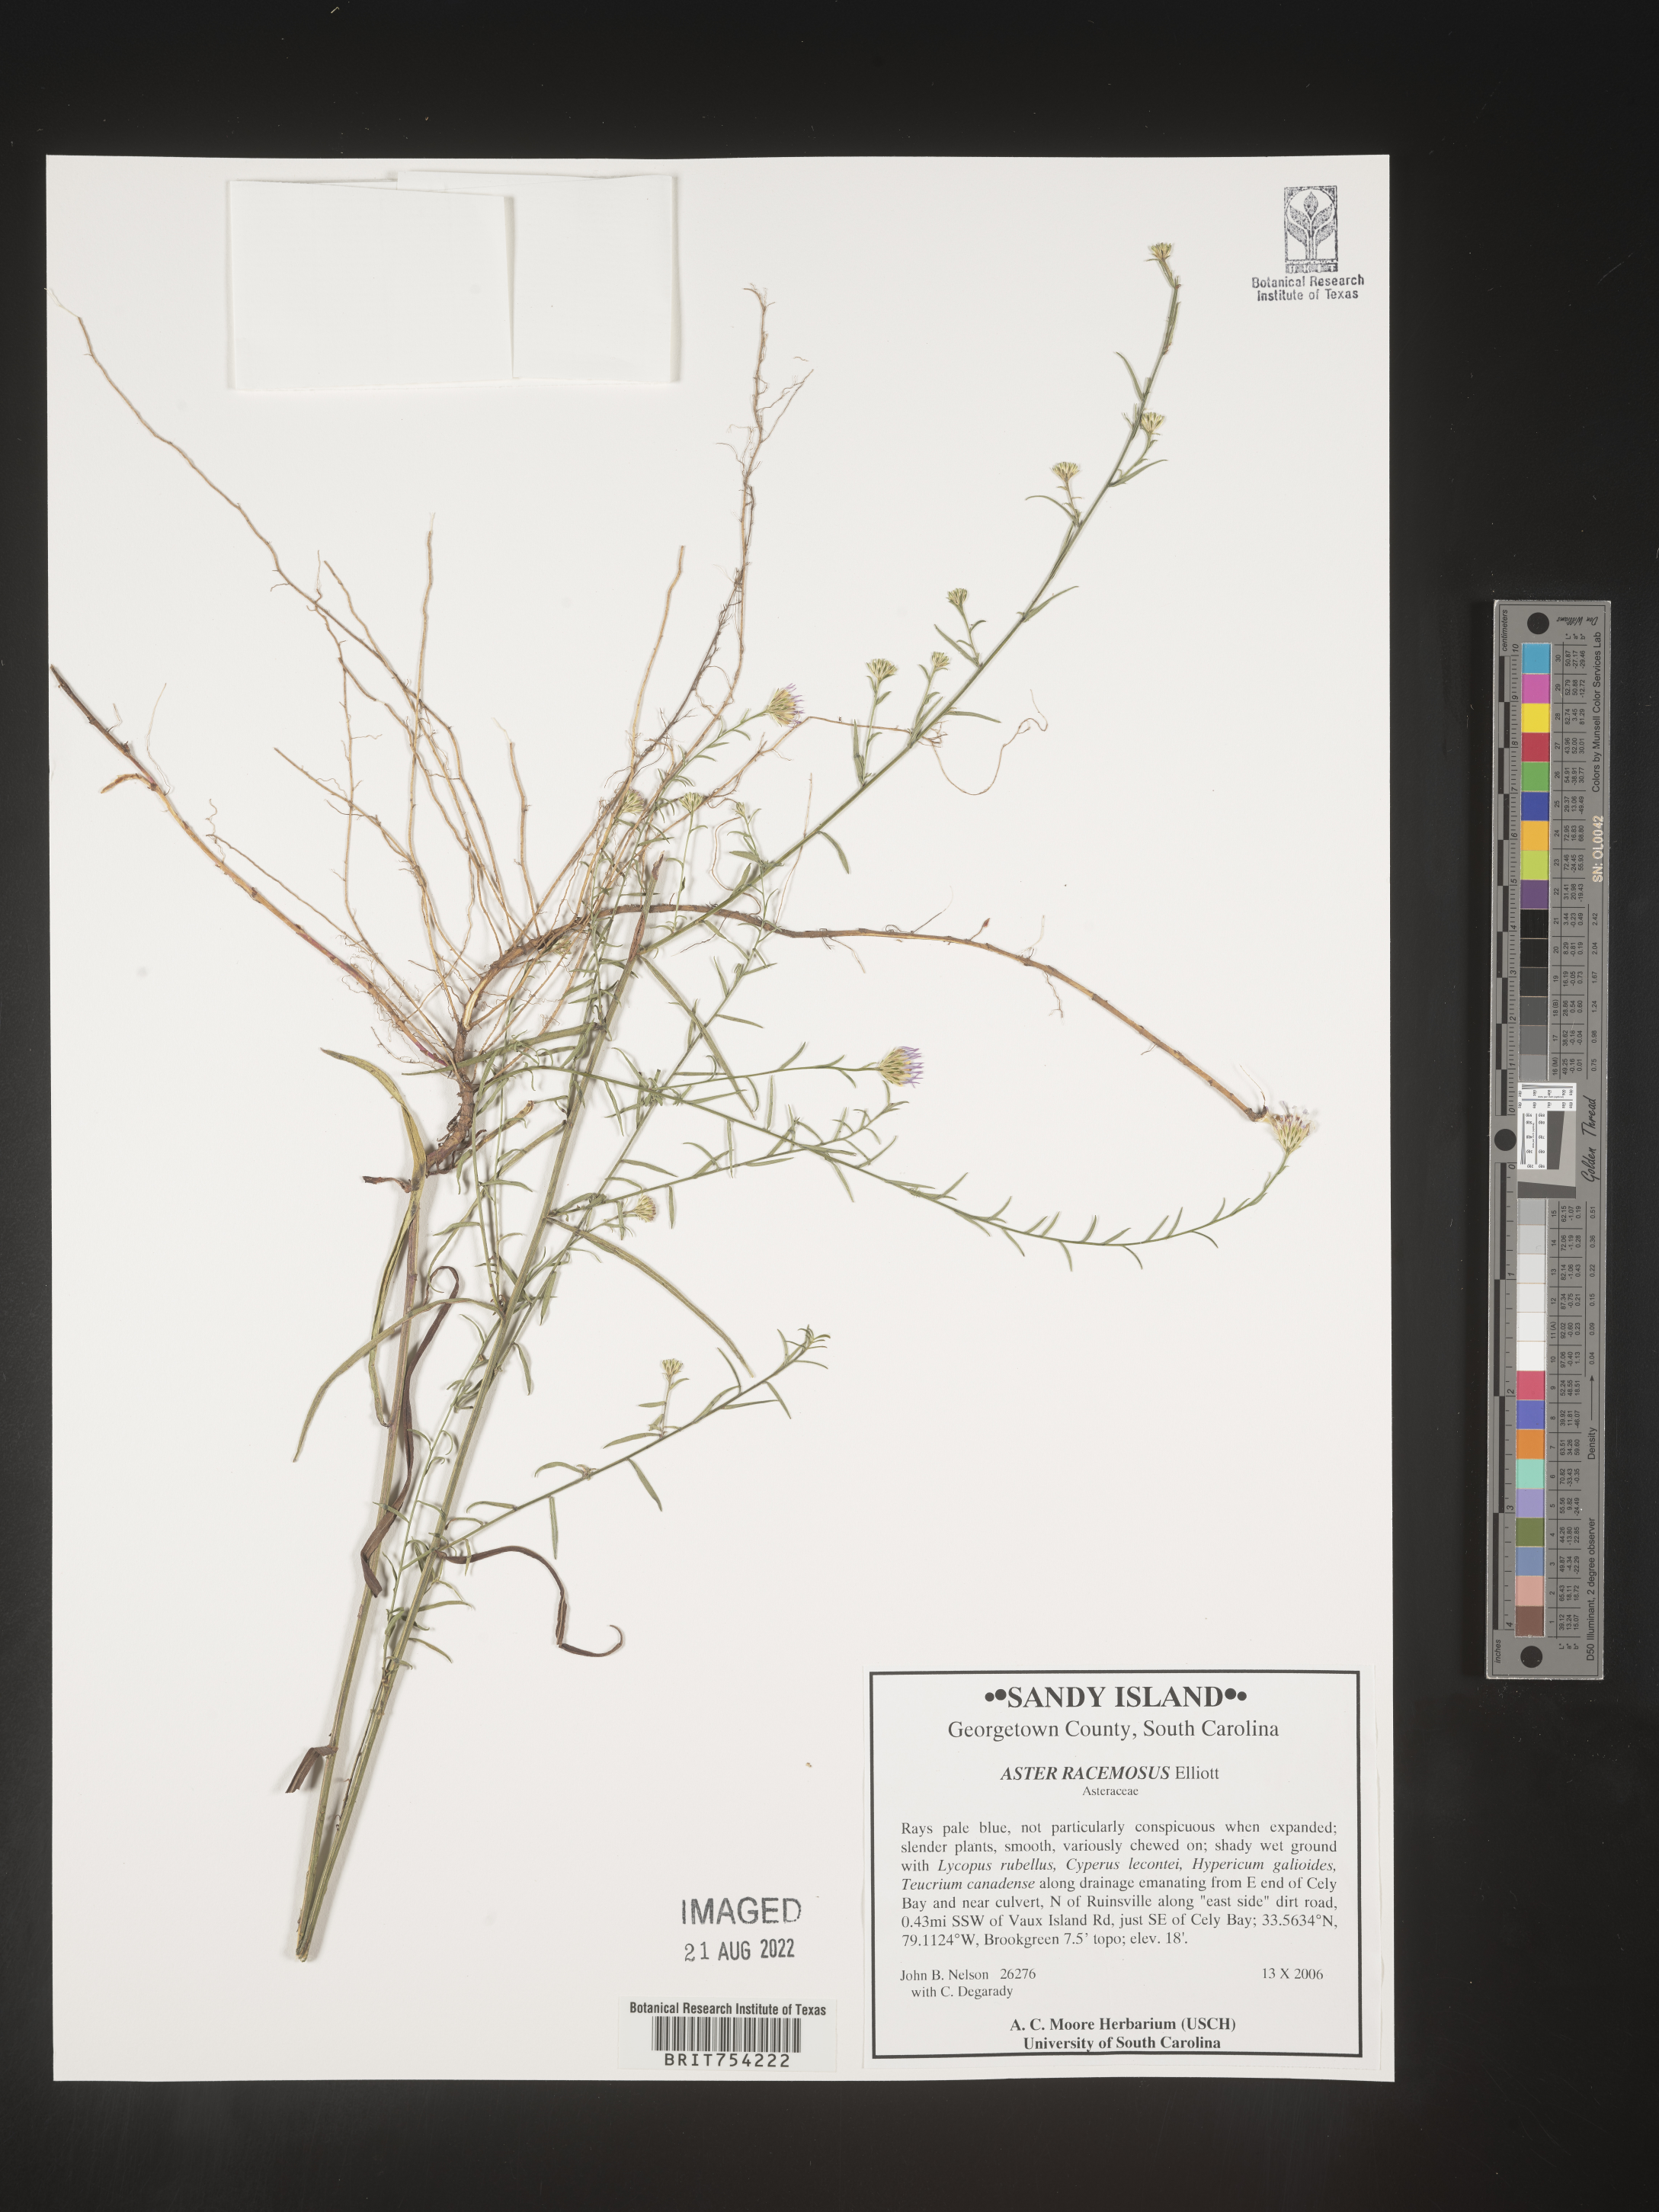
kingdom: Plantae
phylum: Tracheophyta
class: Magnoliopsida
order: Asterales
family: Asteraceae
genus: Symphyotrichum
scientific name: Symphyotrichum racemosum
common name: Small white aster
